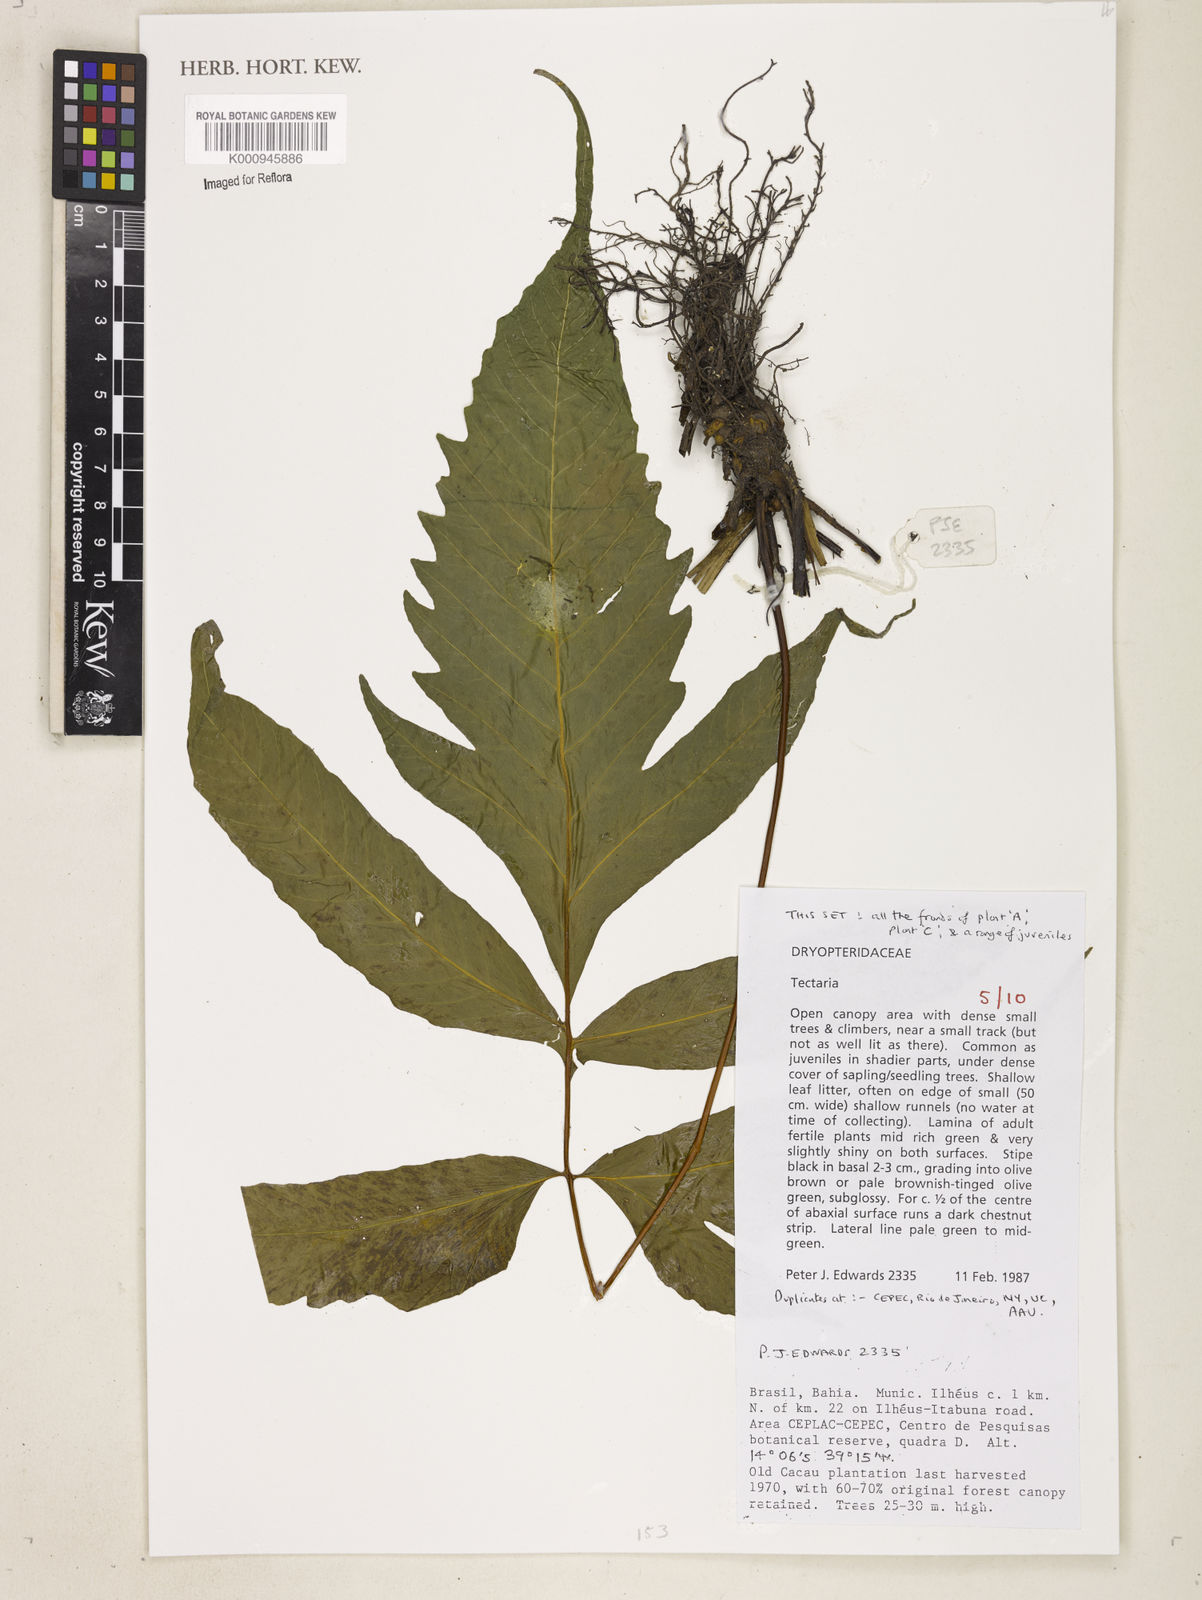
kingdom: Plantae
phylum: Tracheophyta
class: Polypodiopsida
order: Polypodiales
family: Tectariaceae
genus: Tectaria
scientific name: Tectaria
